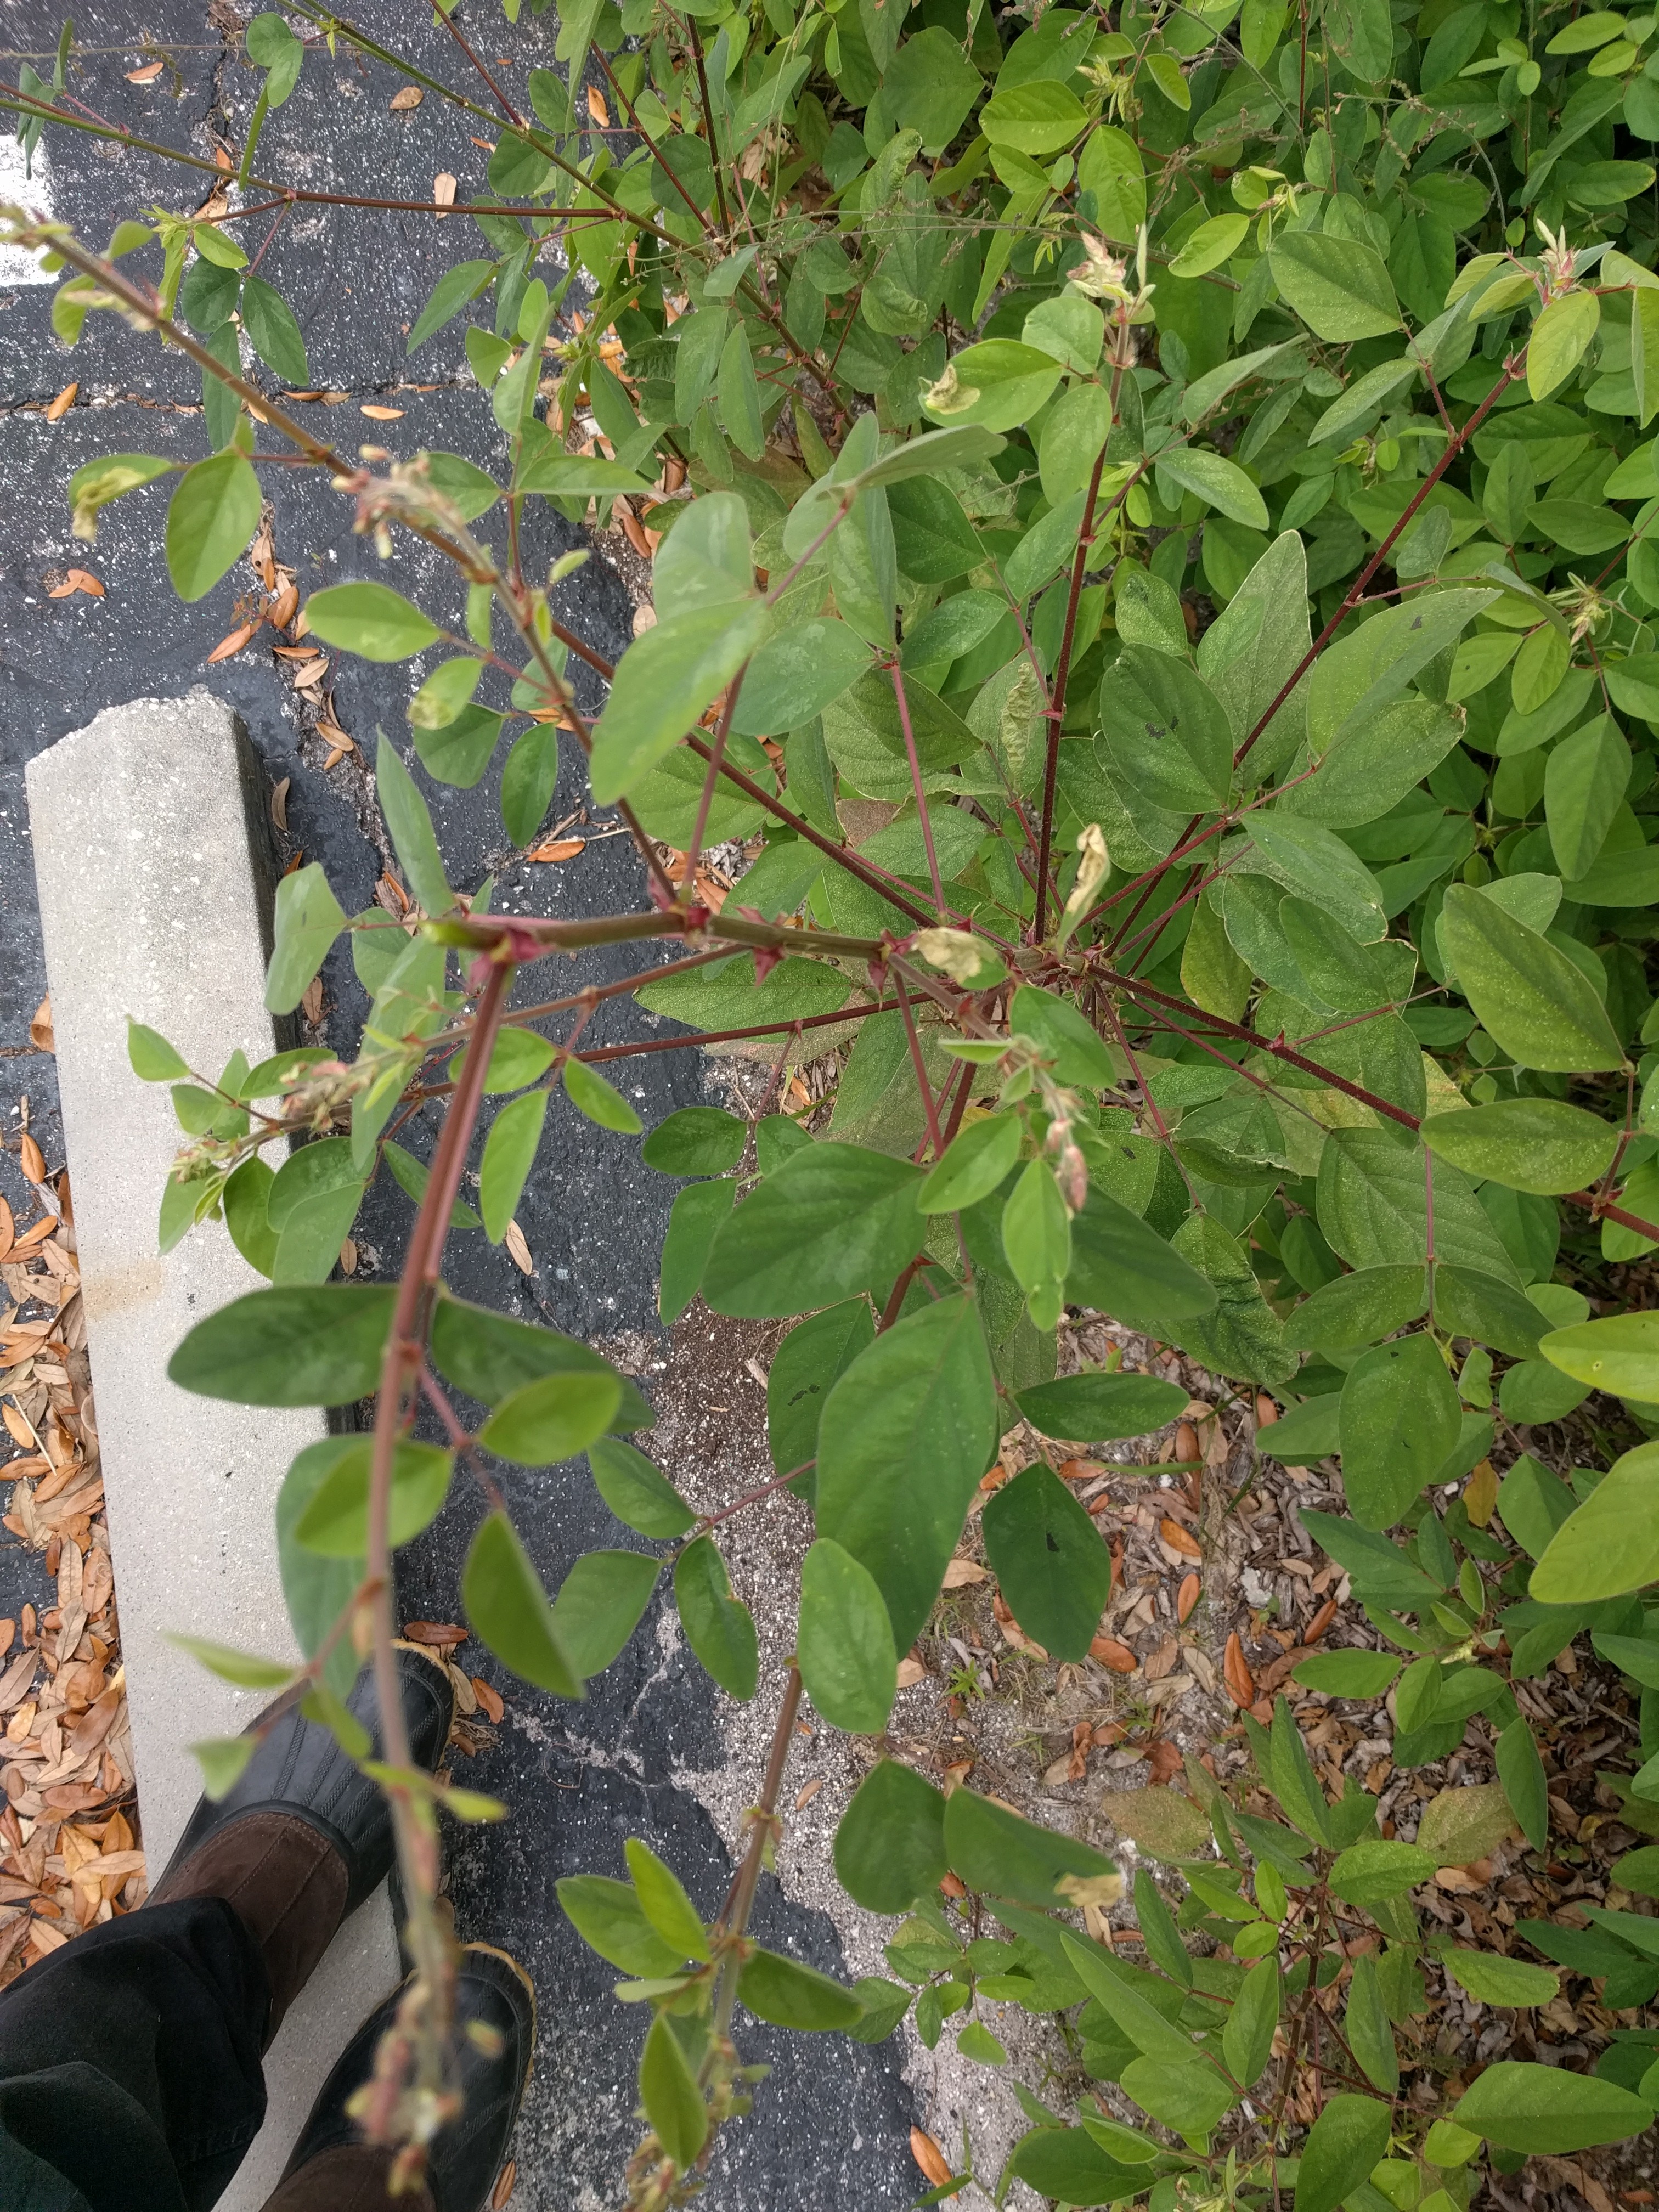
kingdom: Plantae
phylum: Tracheophyta
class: Magnoliopsida
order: Fabales
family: Fabaceae
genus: Desmodium
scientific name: Desmodium tortuosum
